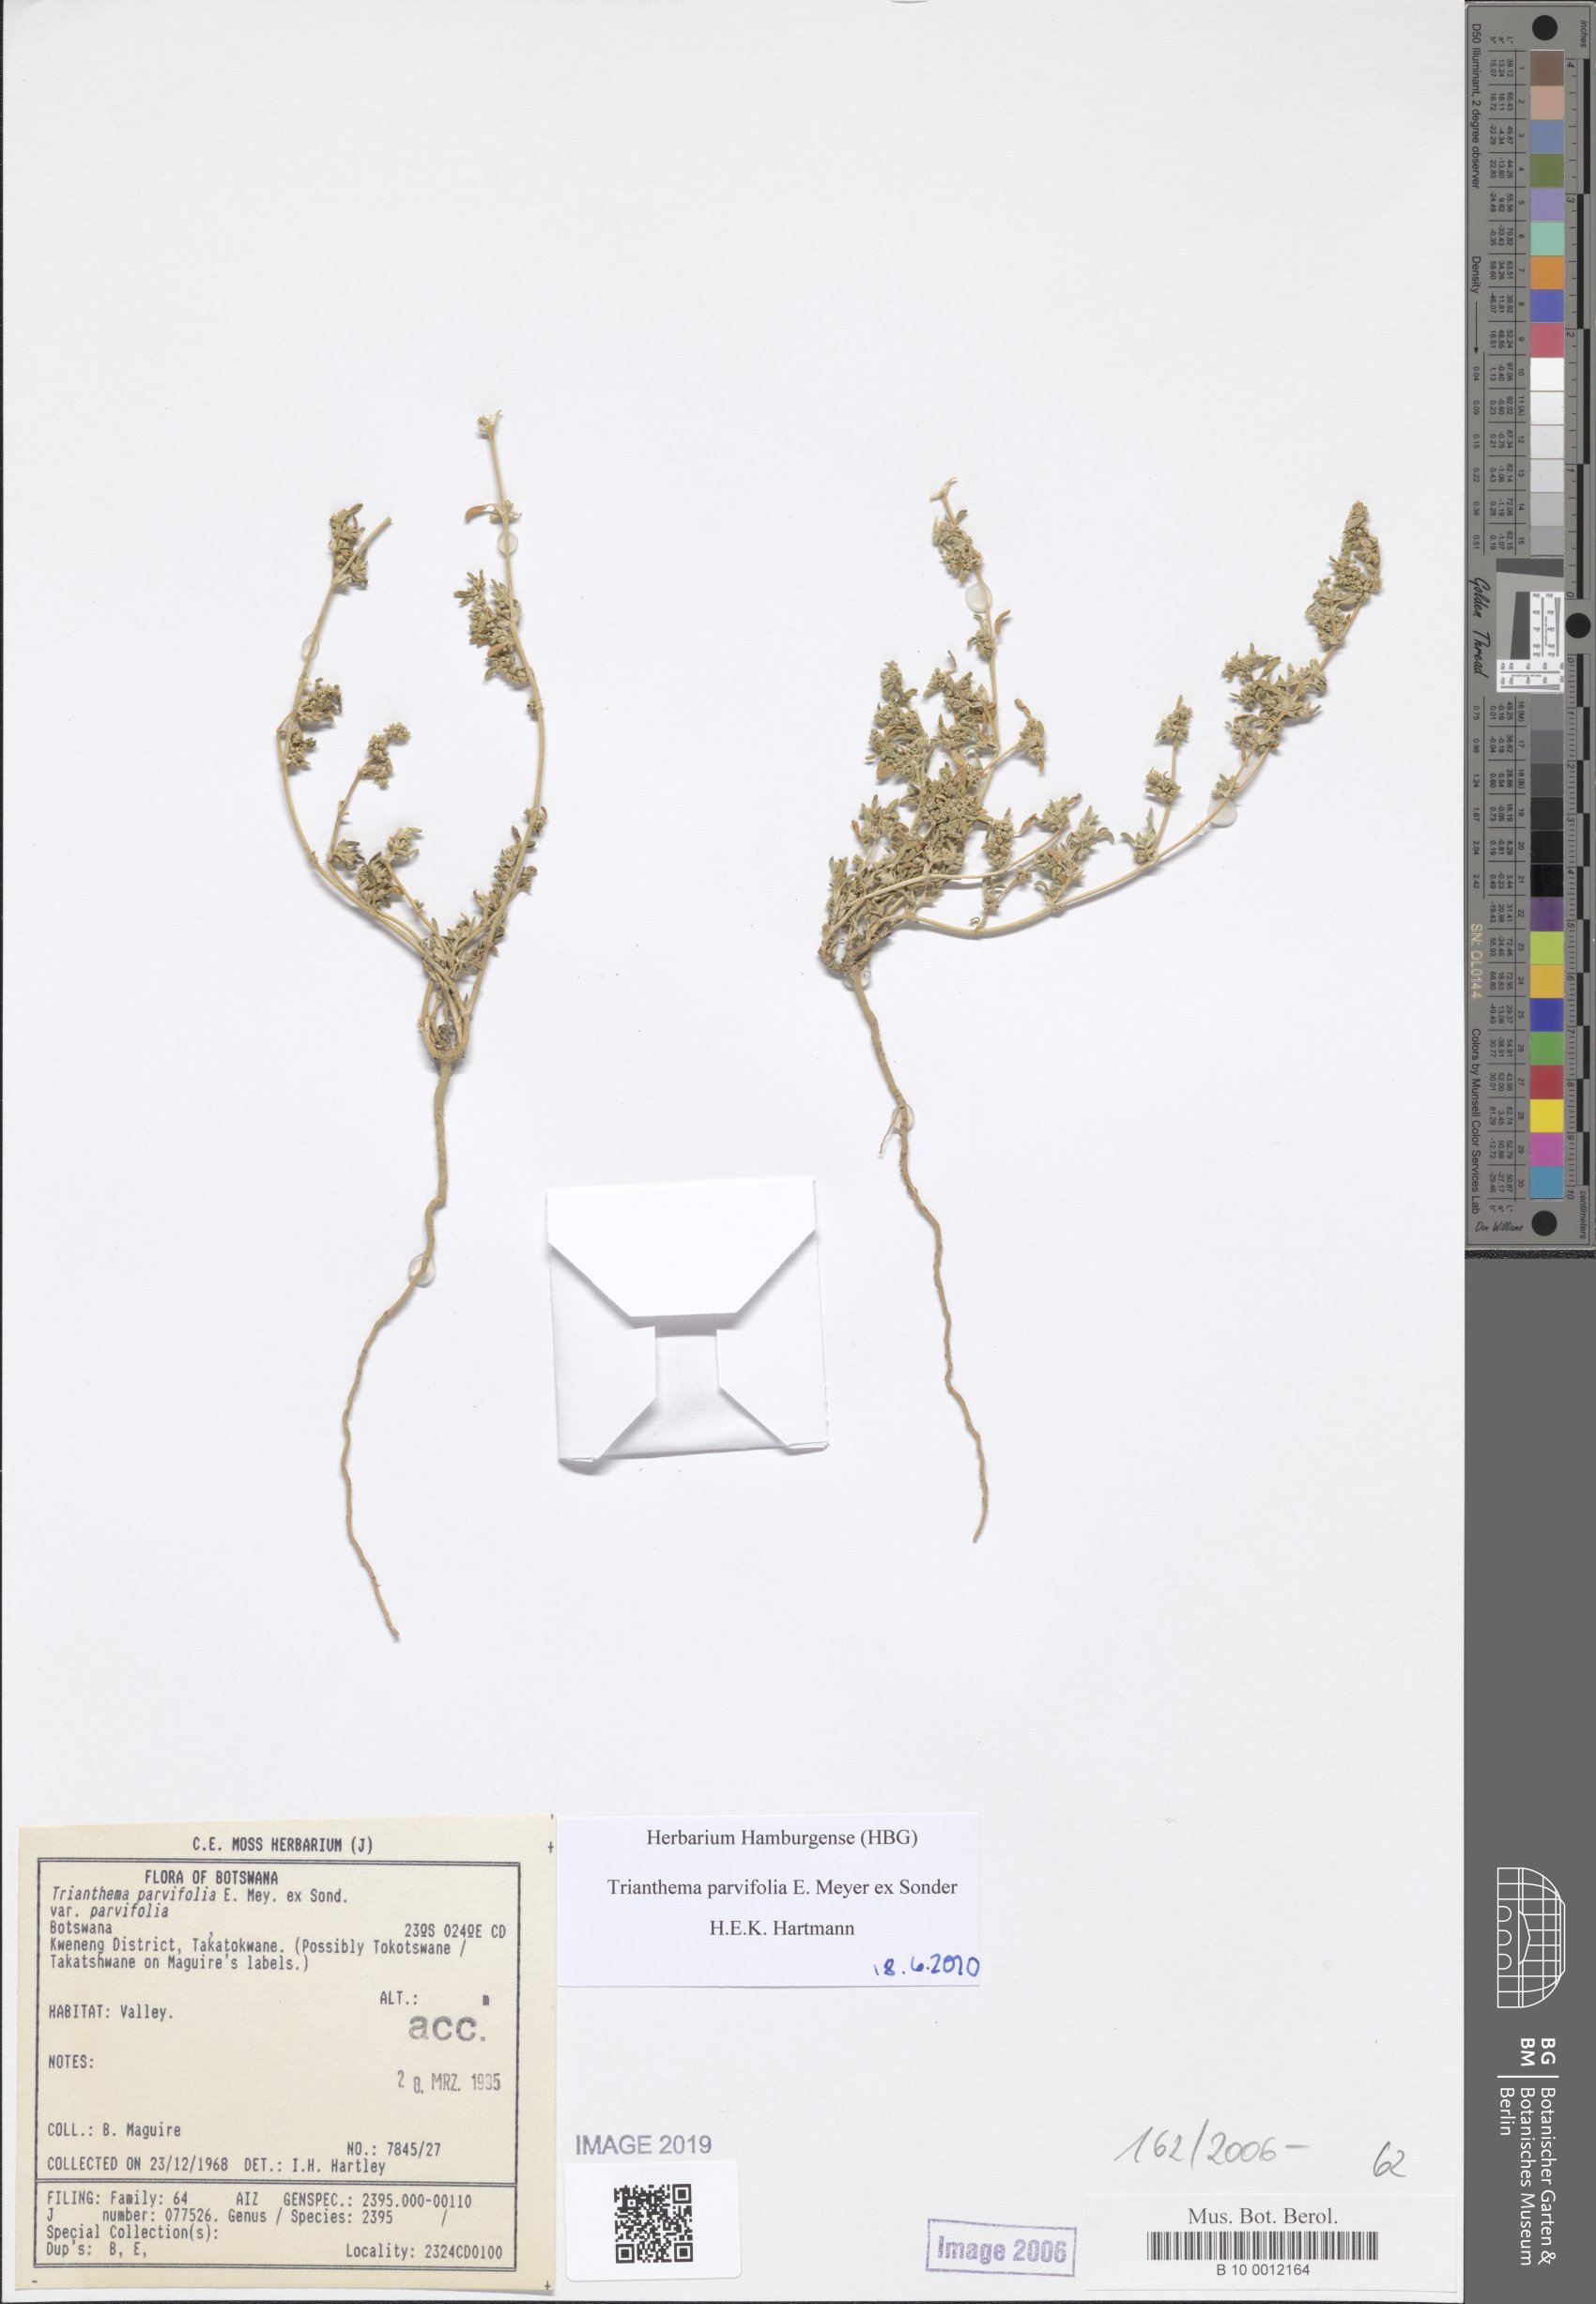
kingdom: Plantae
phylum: Tracheophyta
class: Magnoliopsida
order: Caryophyllales
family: Aizoaceae
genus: Trianthema
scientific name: Trianthema parvifolium
